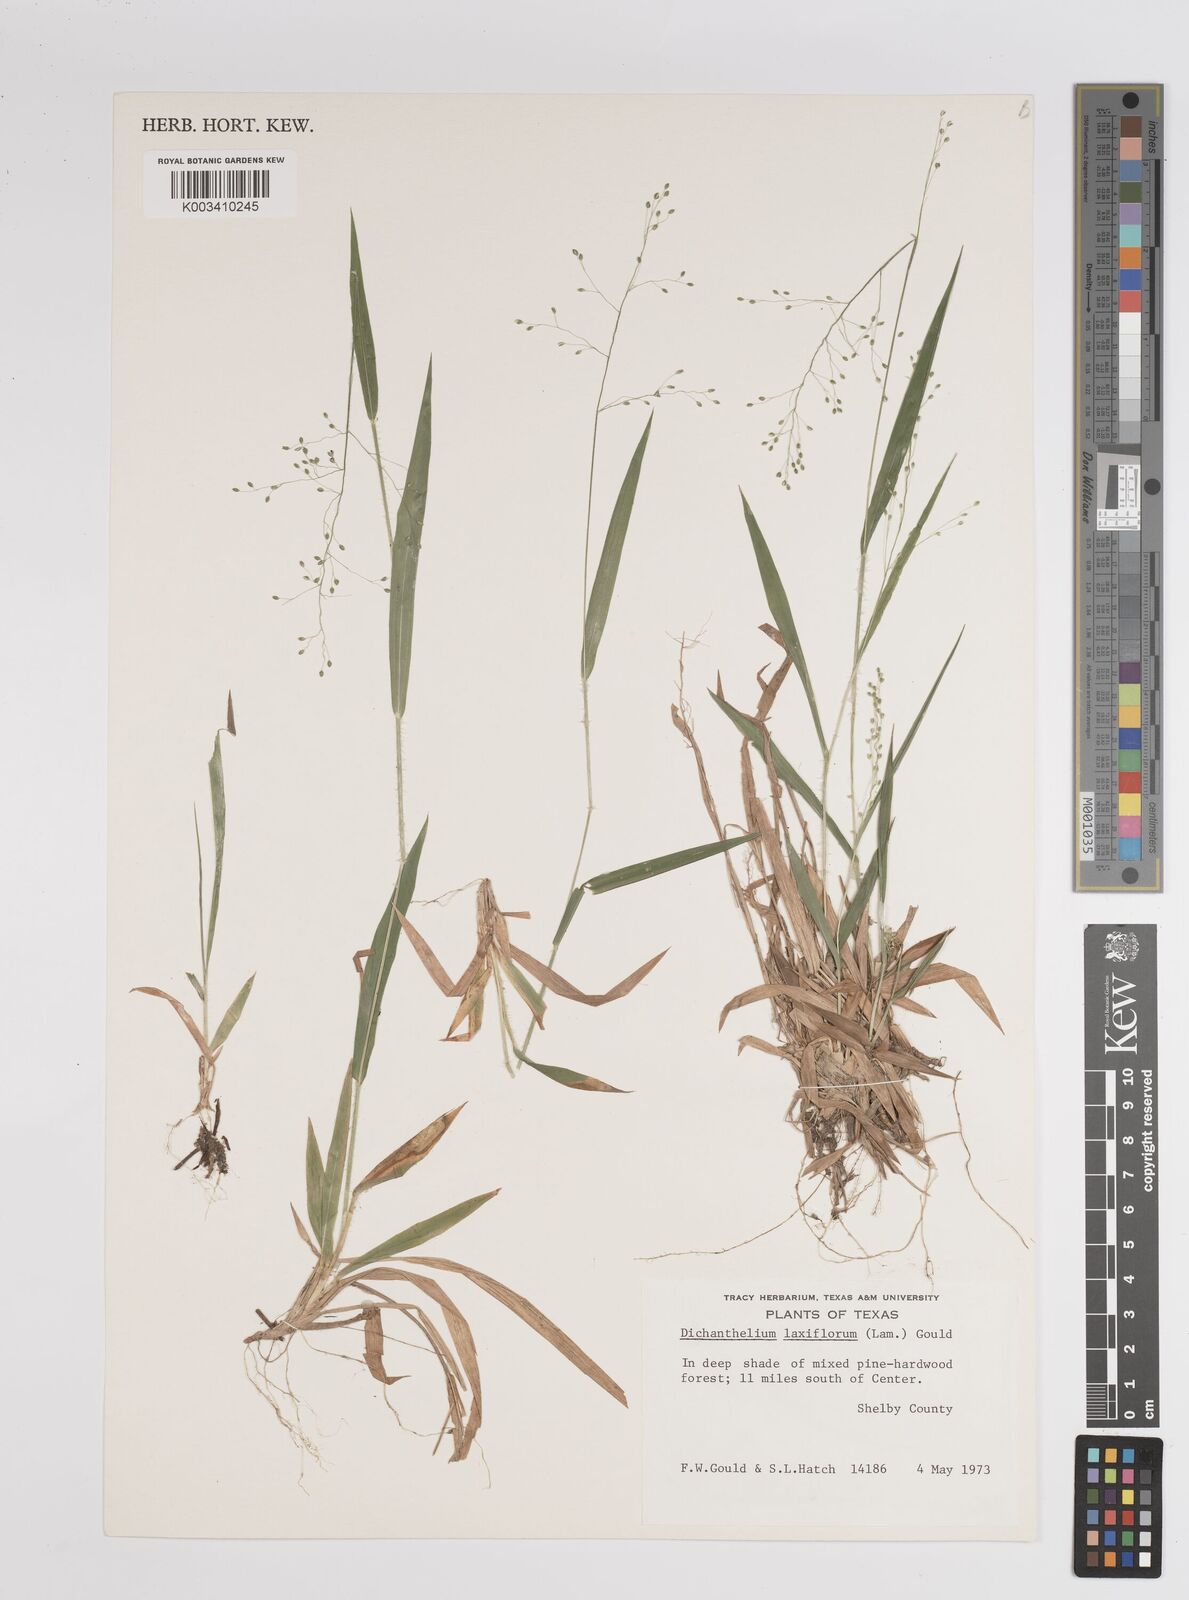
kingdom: Plantae
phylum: Tracheophyta
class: Liliopsida
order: Poales
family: Poaceae
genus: Dichanthelium
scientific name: Dichanthelium laxiflorum
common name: Soft-tuft panic grass
